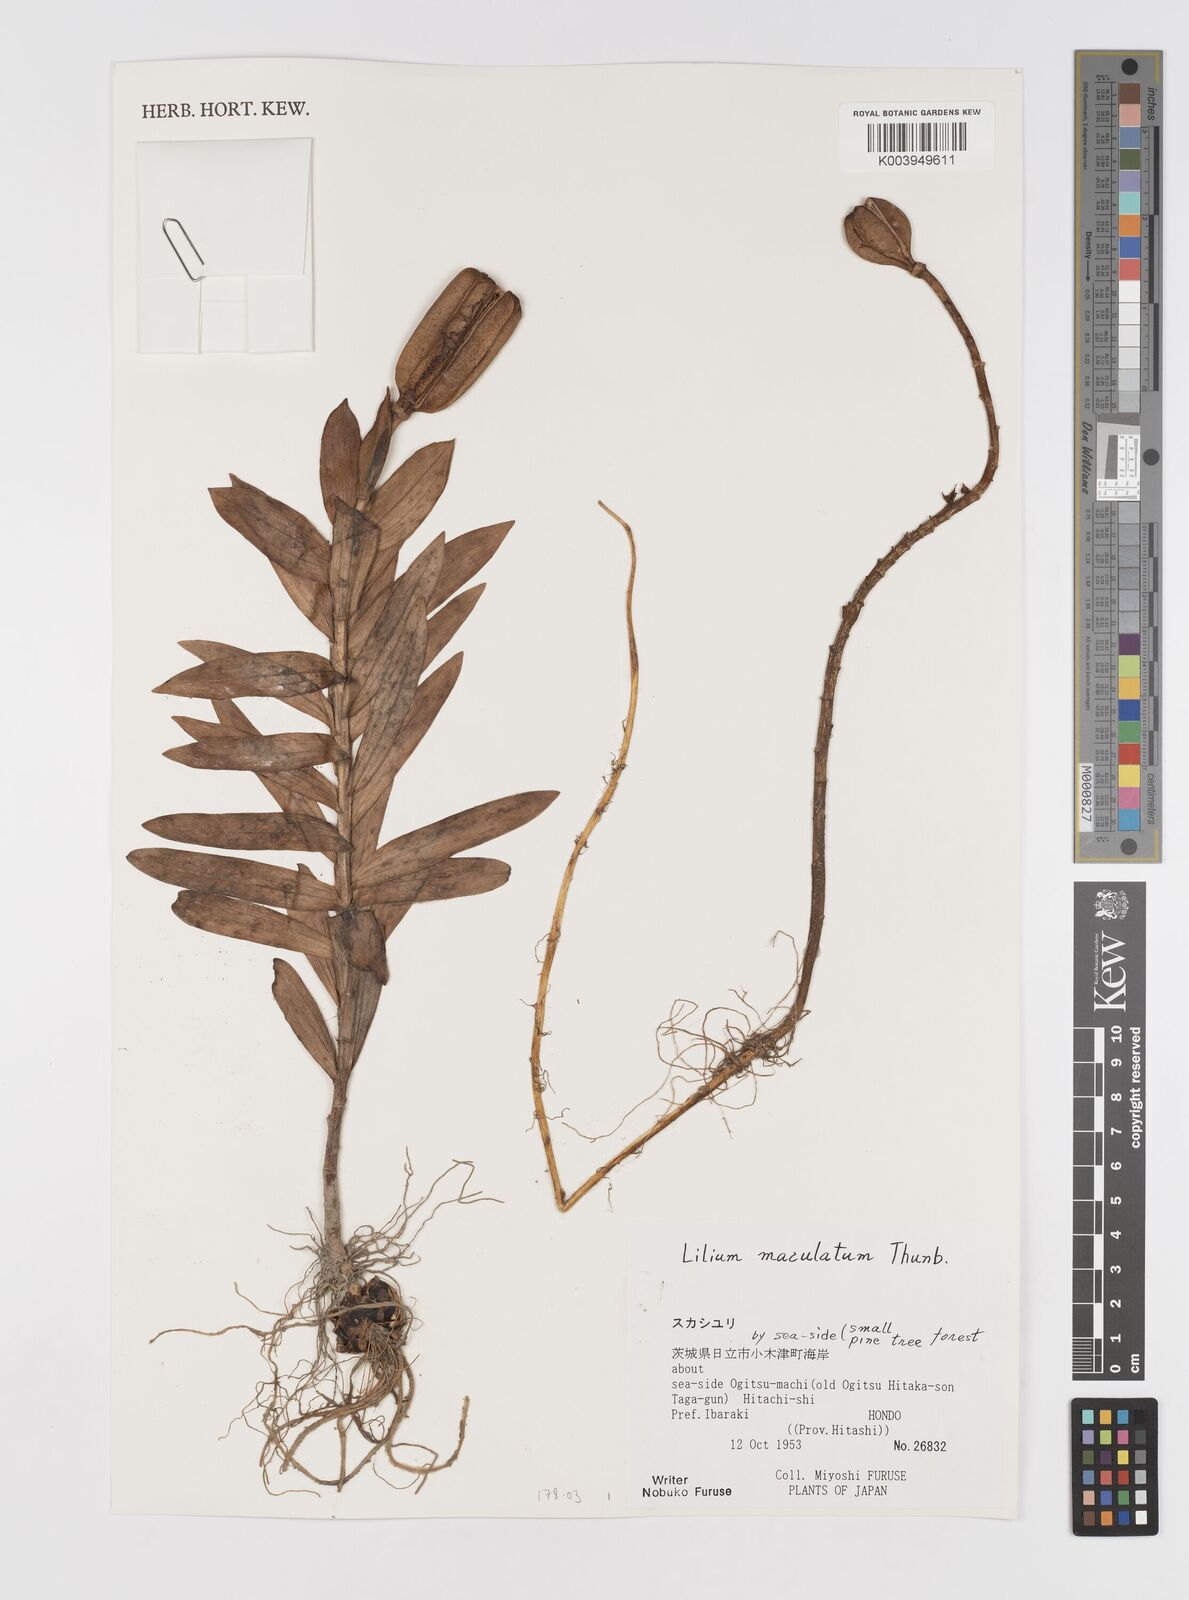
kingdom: Plantae
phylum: Tracheophyta
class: Liliopsida
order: Liliales
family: Liliaceae
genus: Lilium
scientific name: Lilium maculatum
